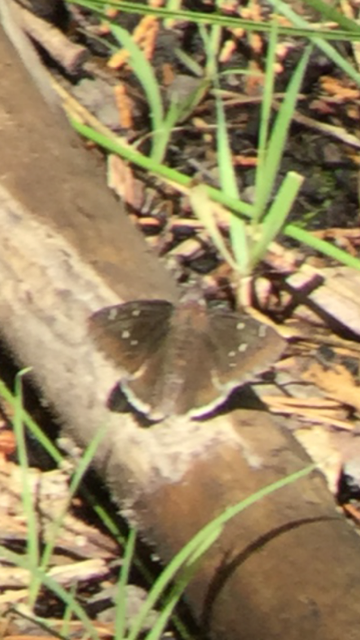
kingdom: Animalia
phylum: Arthropoda
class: Insecta
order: Lepidoptera
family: Hesperiidae
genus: Thorybes
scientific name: Thorybes
